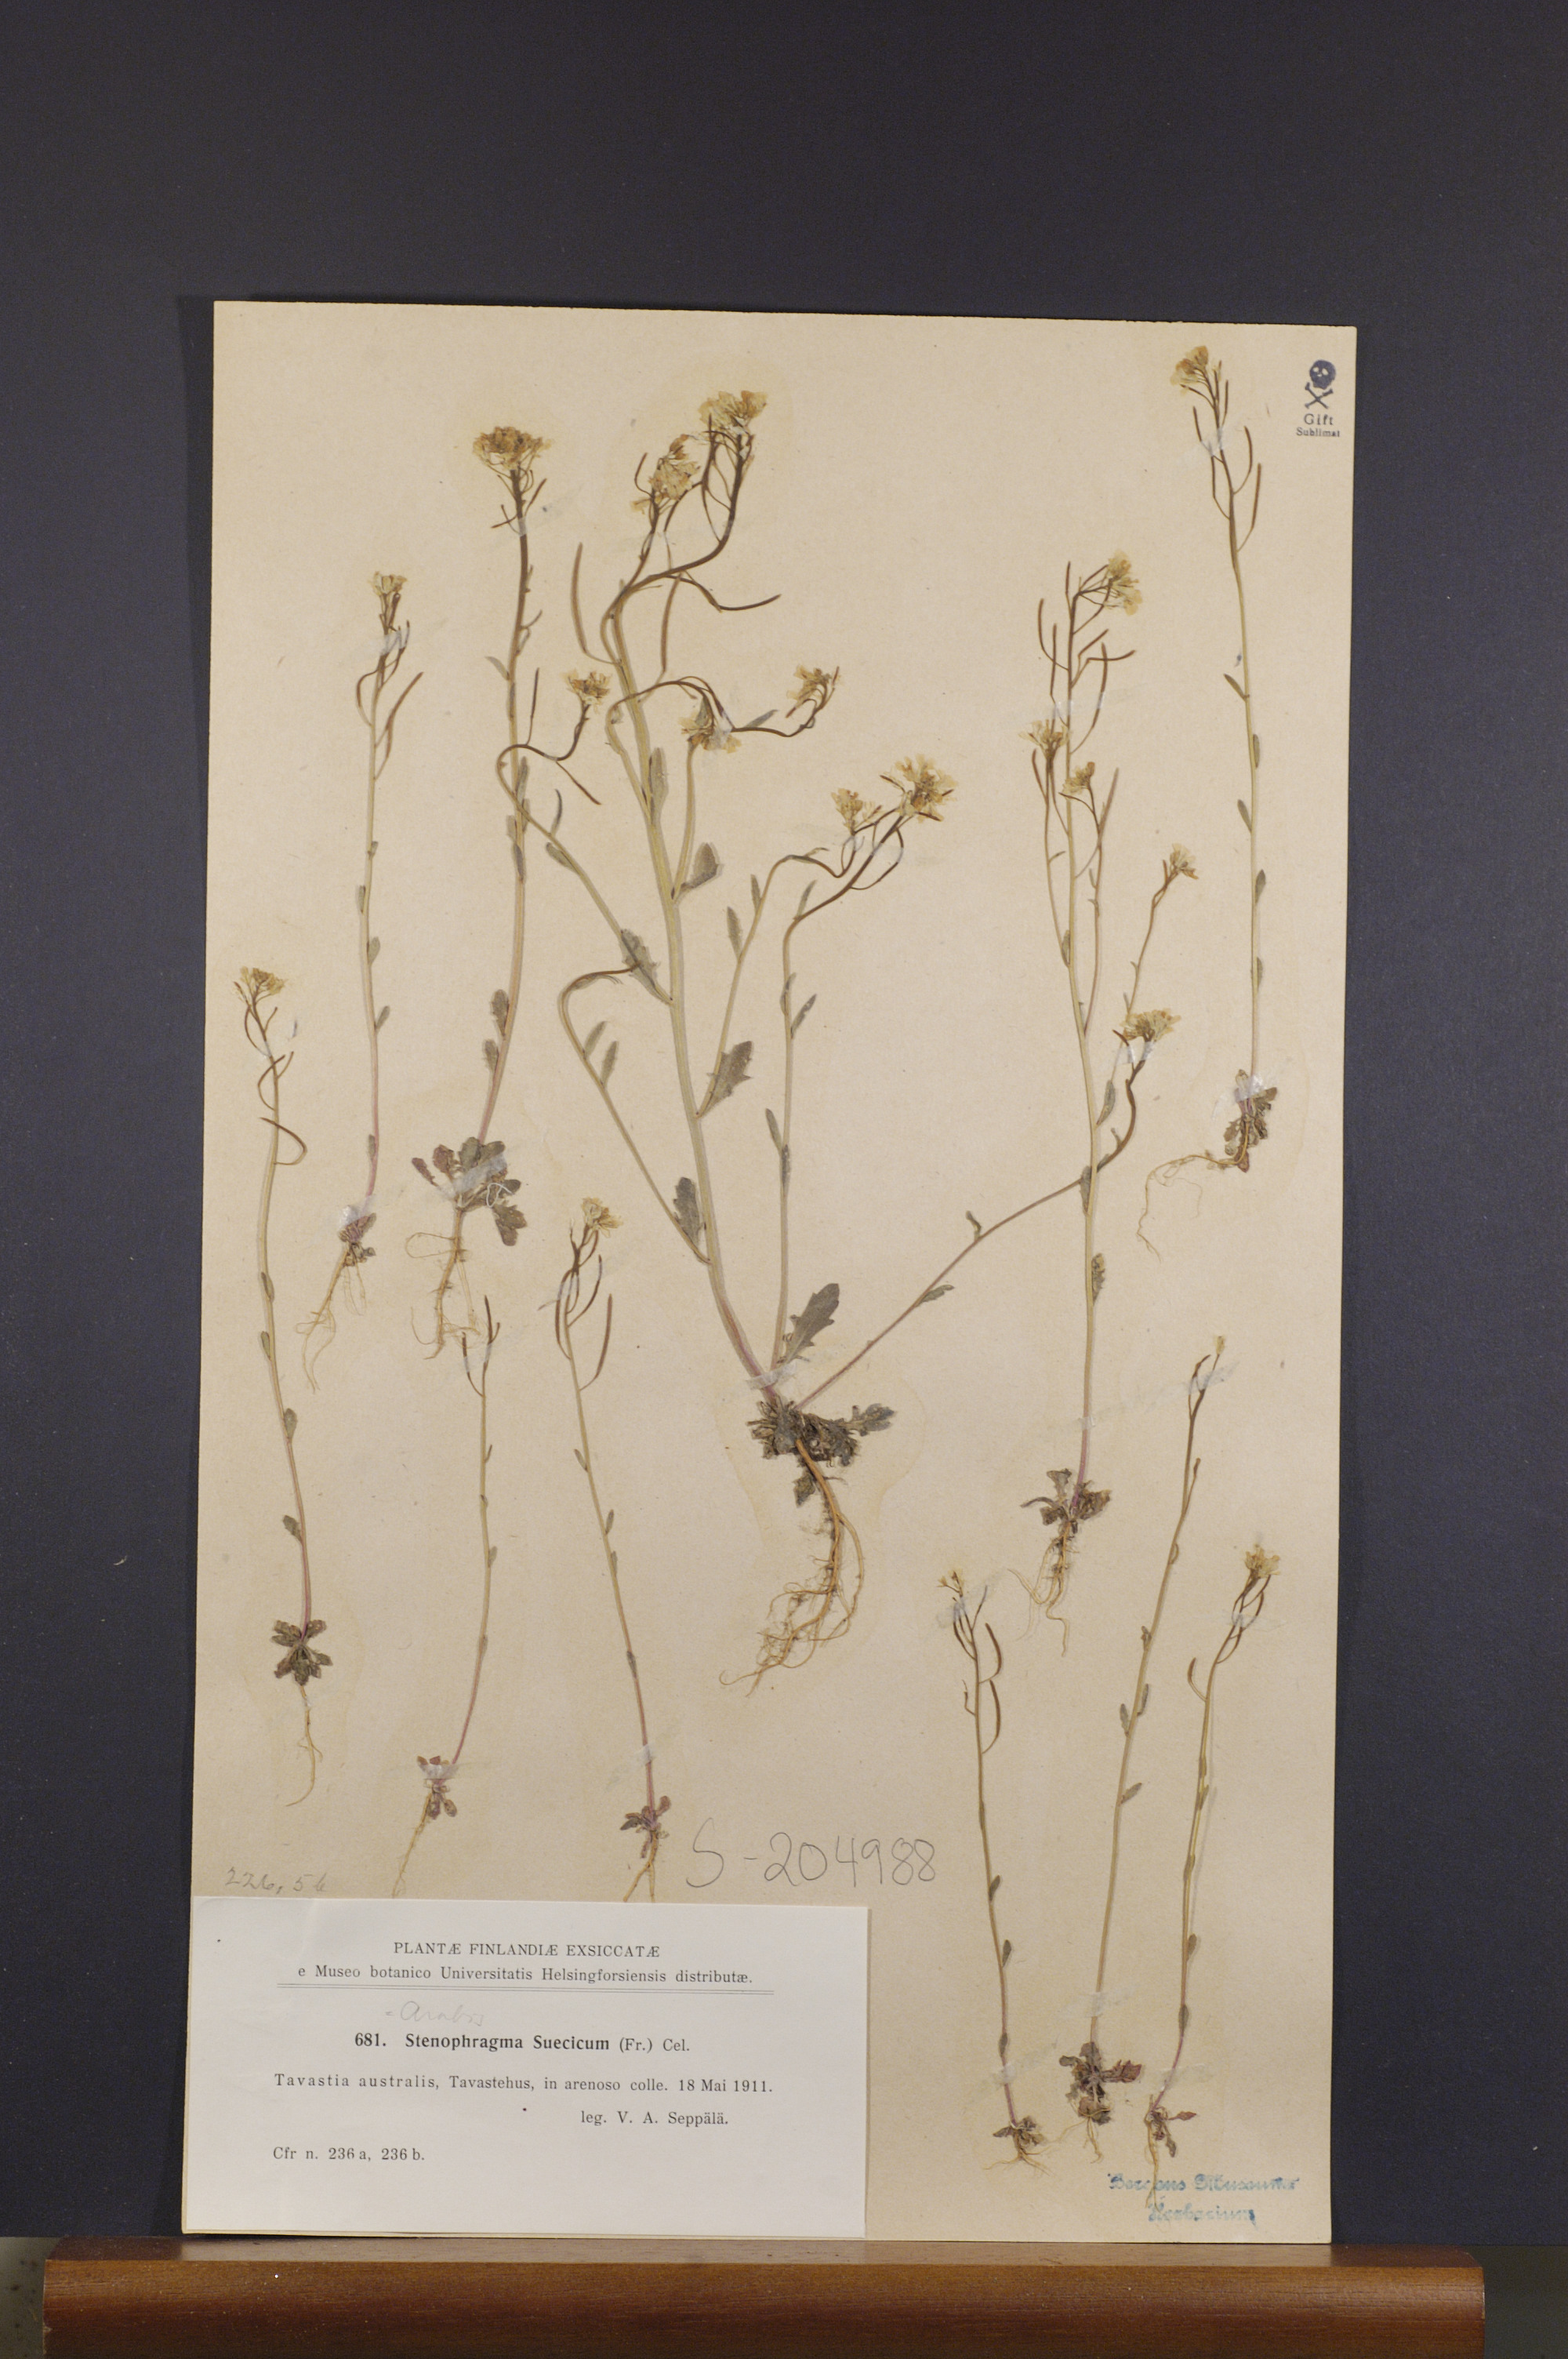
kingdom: Plantae
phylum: Tracheophyta
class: Magnoliopsida
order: Brassicales
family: Brassicaceae
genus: Arabidopsis
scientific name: Arabidopsis suecica
